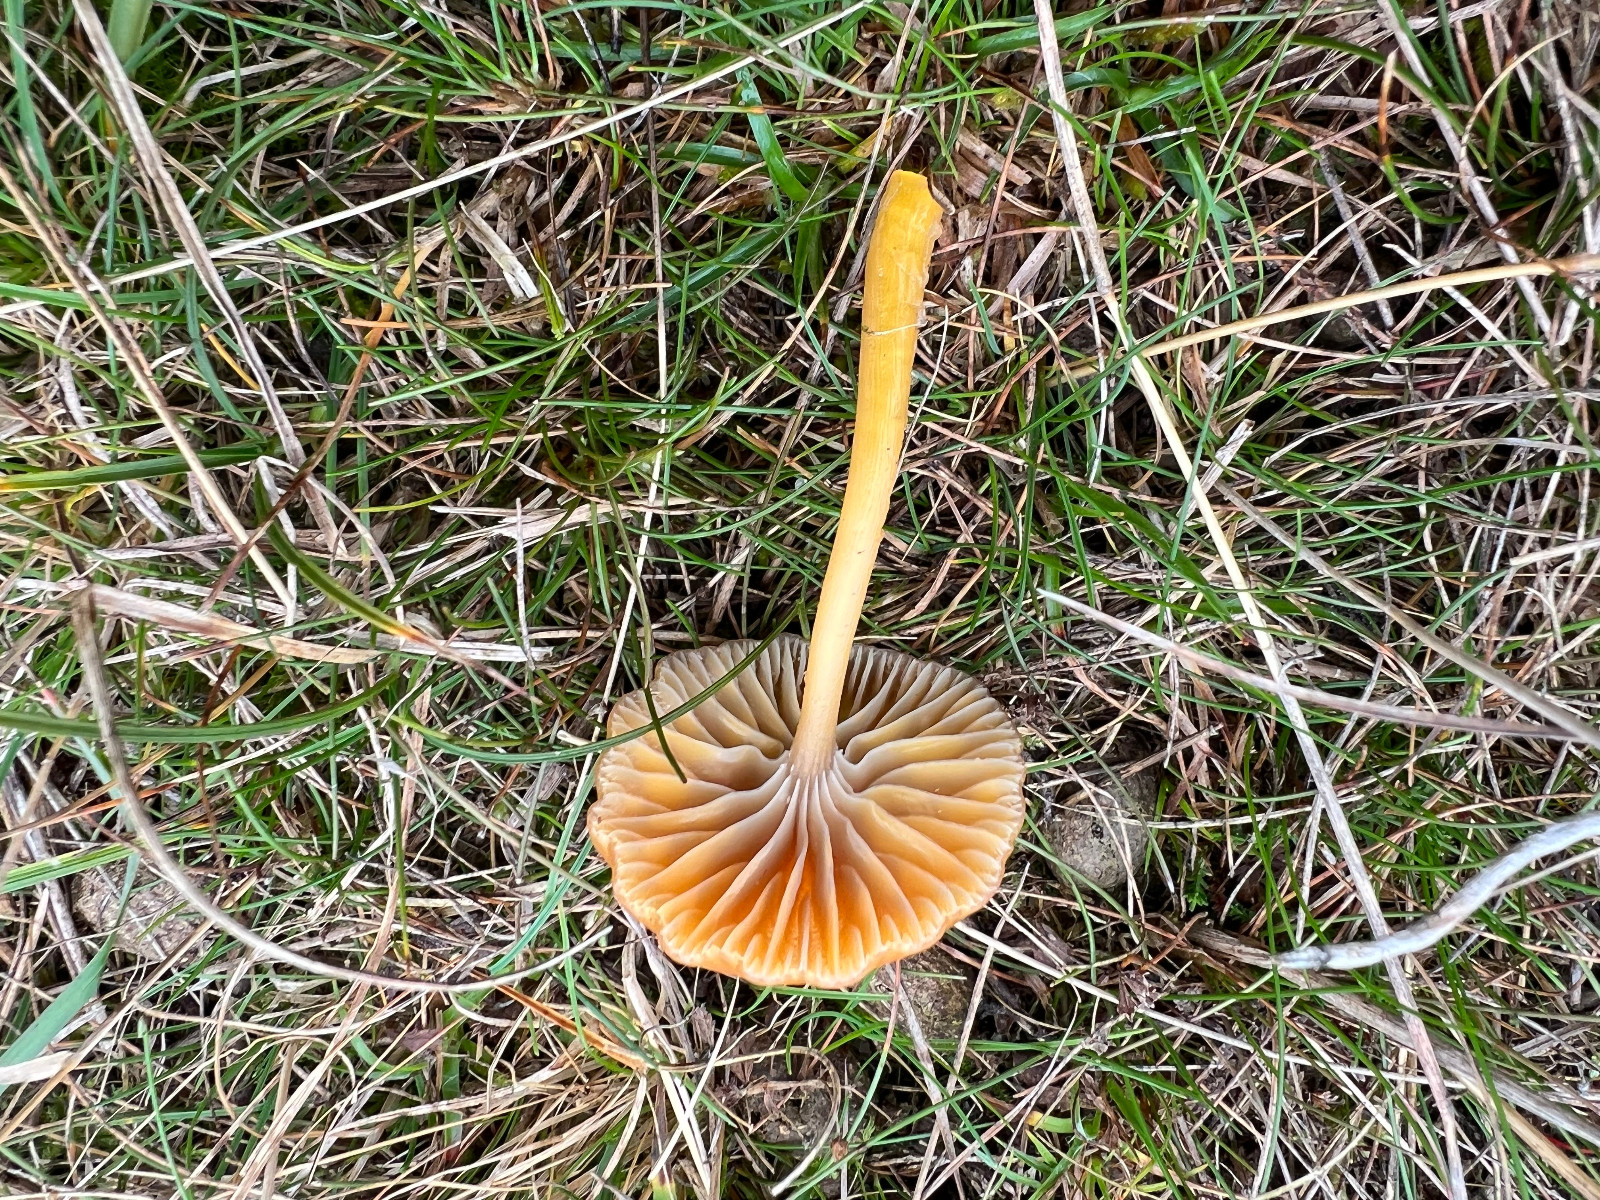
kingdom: Fungi
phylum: Basidiomycota
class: Agaricomycetes
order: Agaricales
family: Hygrophoraceae
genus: Gliophorus
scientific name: Gliophorus laetus
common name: brusk-vokshat
